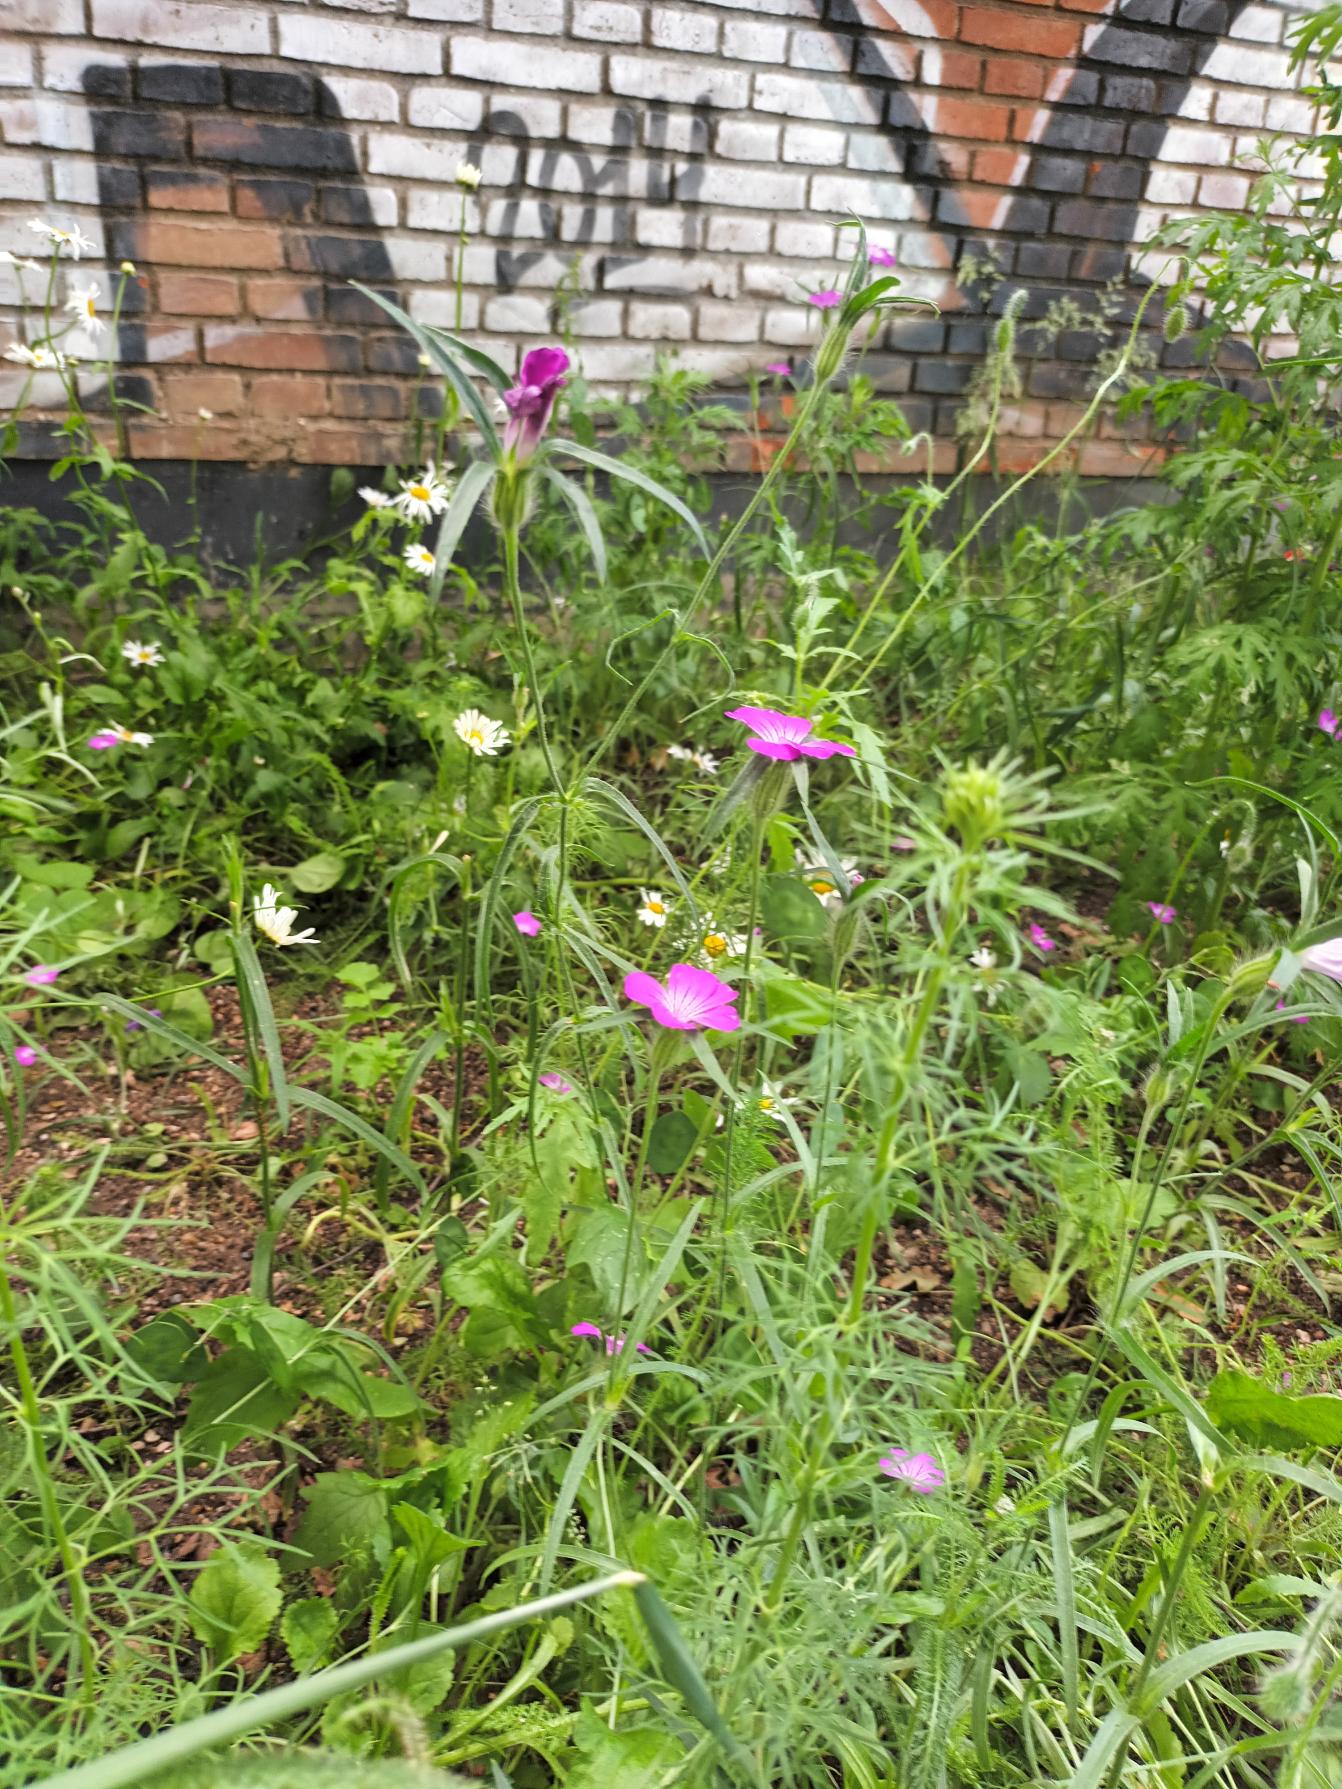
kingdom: Plantae
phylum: Tracheophyta
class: Magnoliopsida
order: Caryophyllales
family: Caryophyllaceae
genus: Agrostemma
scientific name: Agrostemma githago
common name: Klinte
